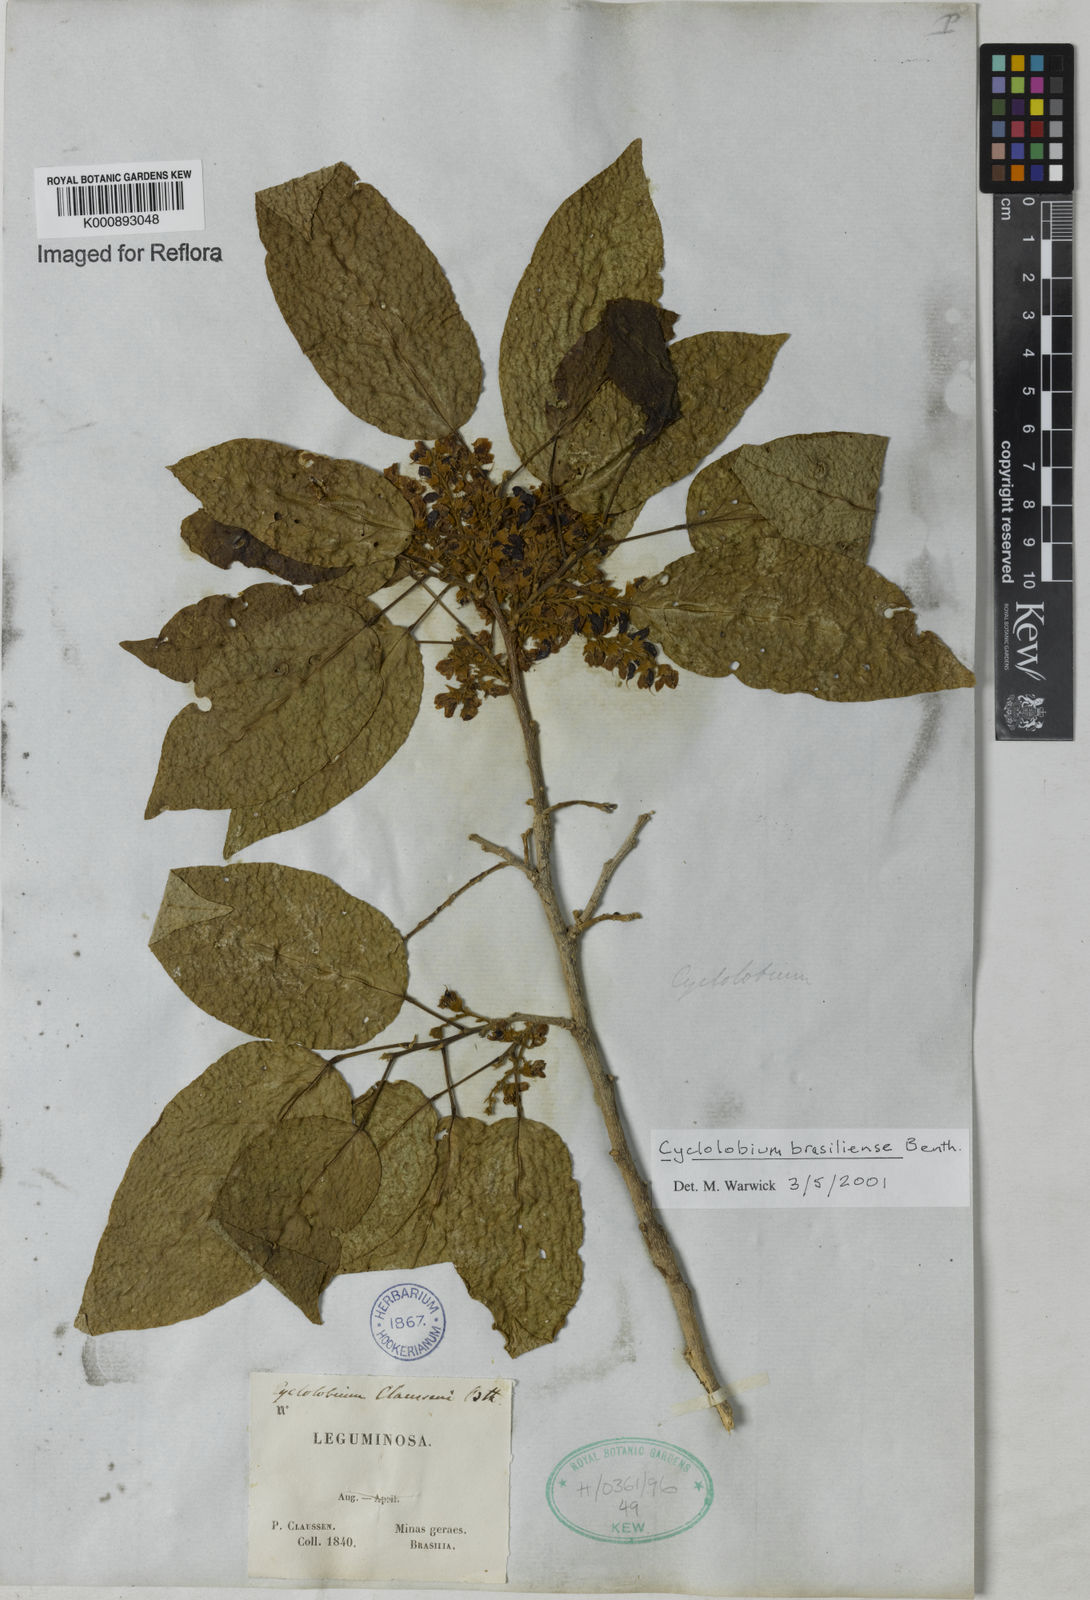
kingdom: Plantae
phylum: Tracheophyta
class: Magnoliopsida
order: Fabales
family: Fabaceae
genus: Cyclolobium
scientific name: Cyclolobium brasiliense
